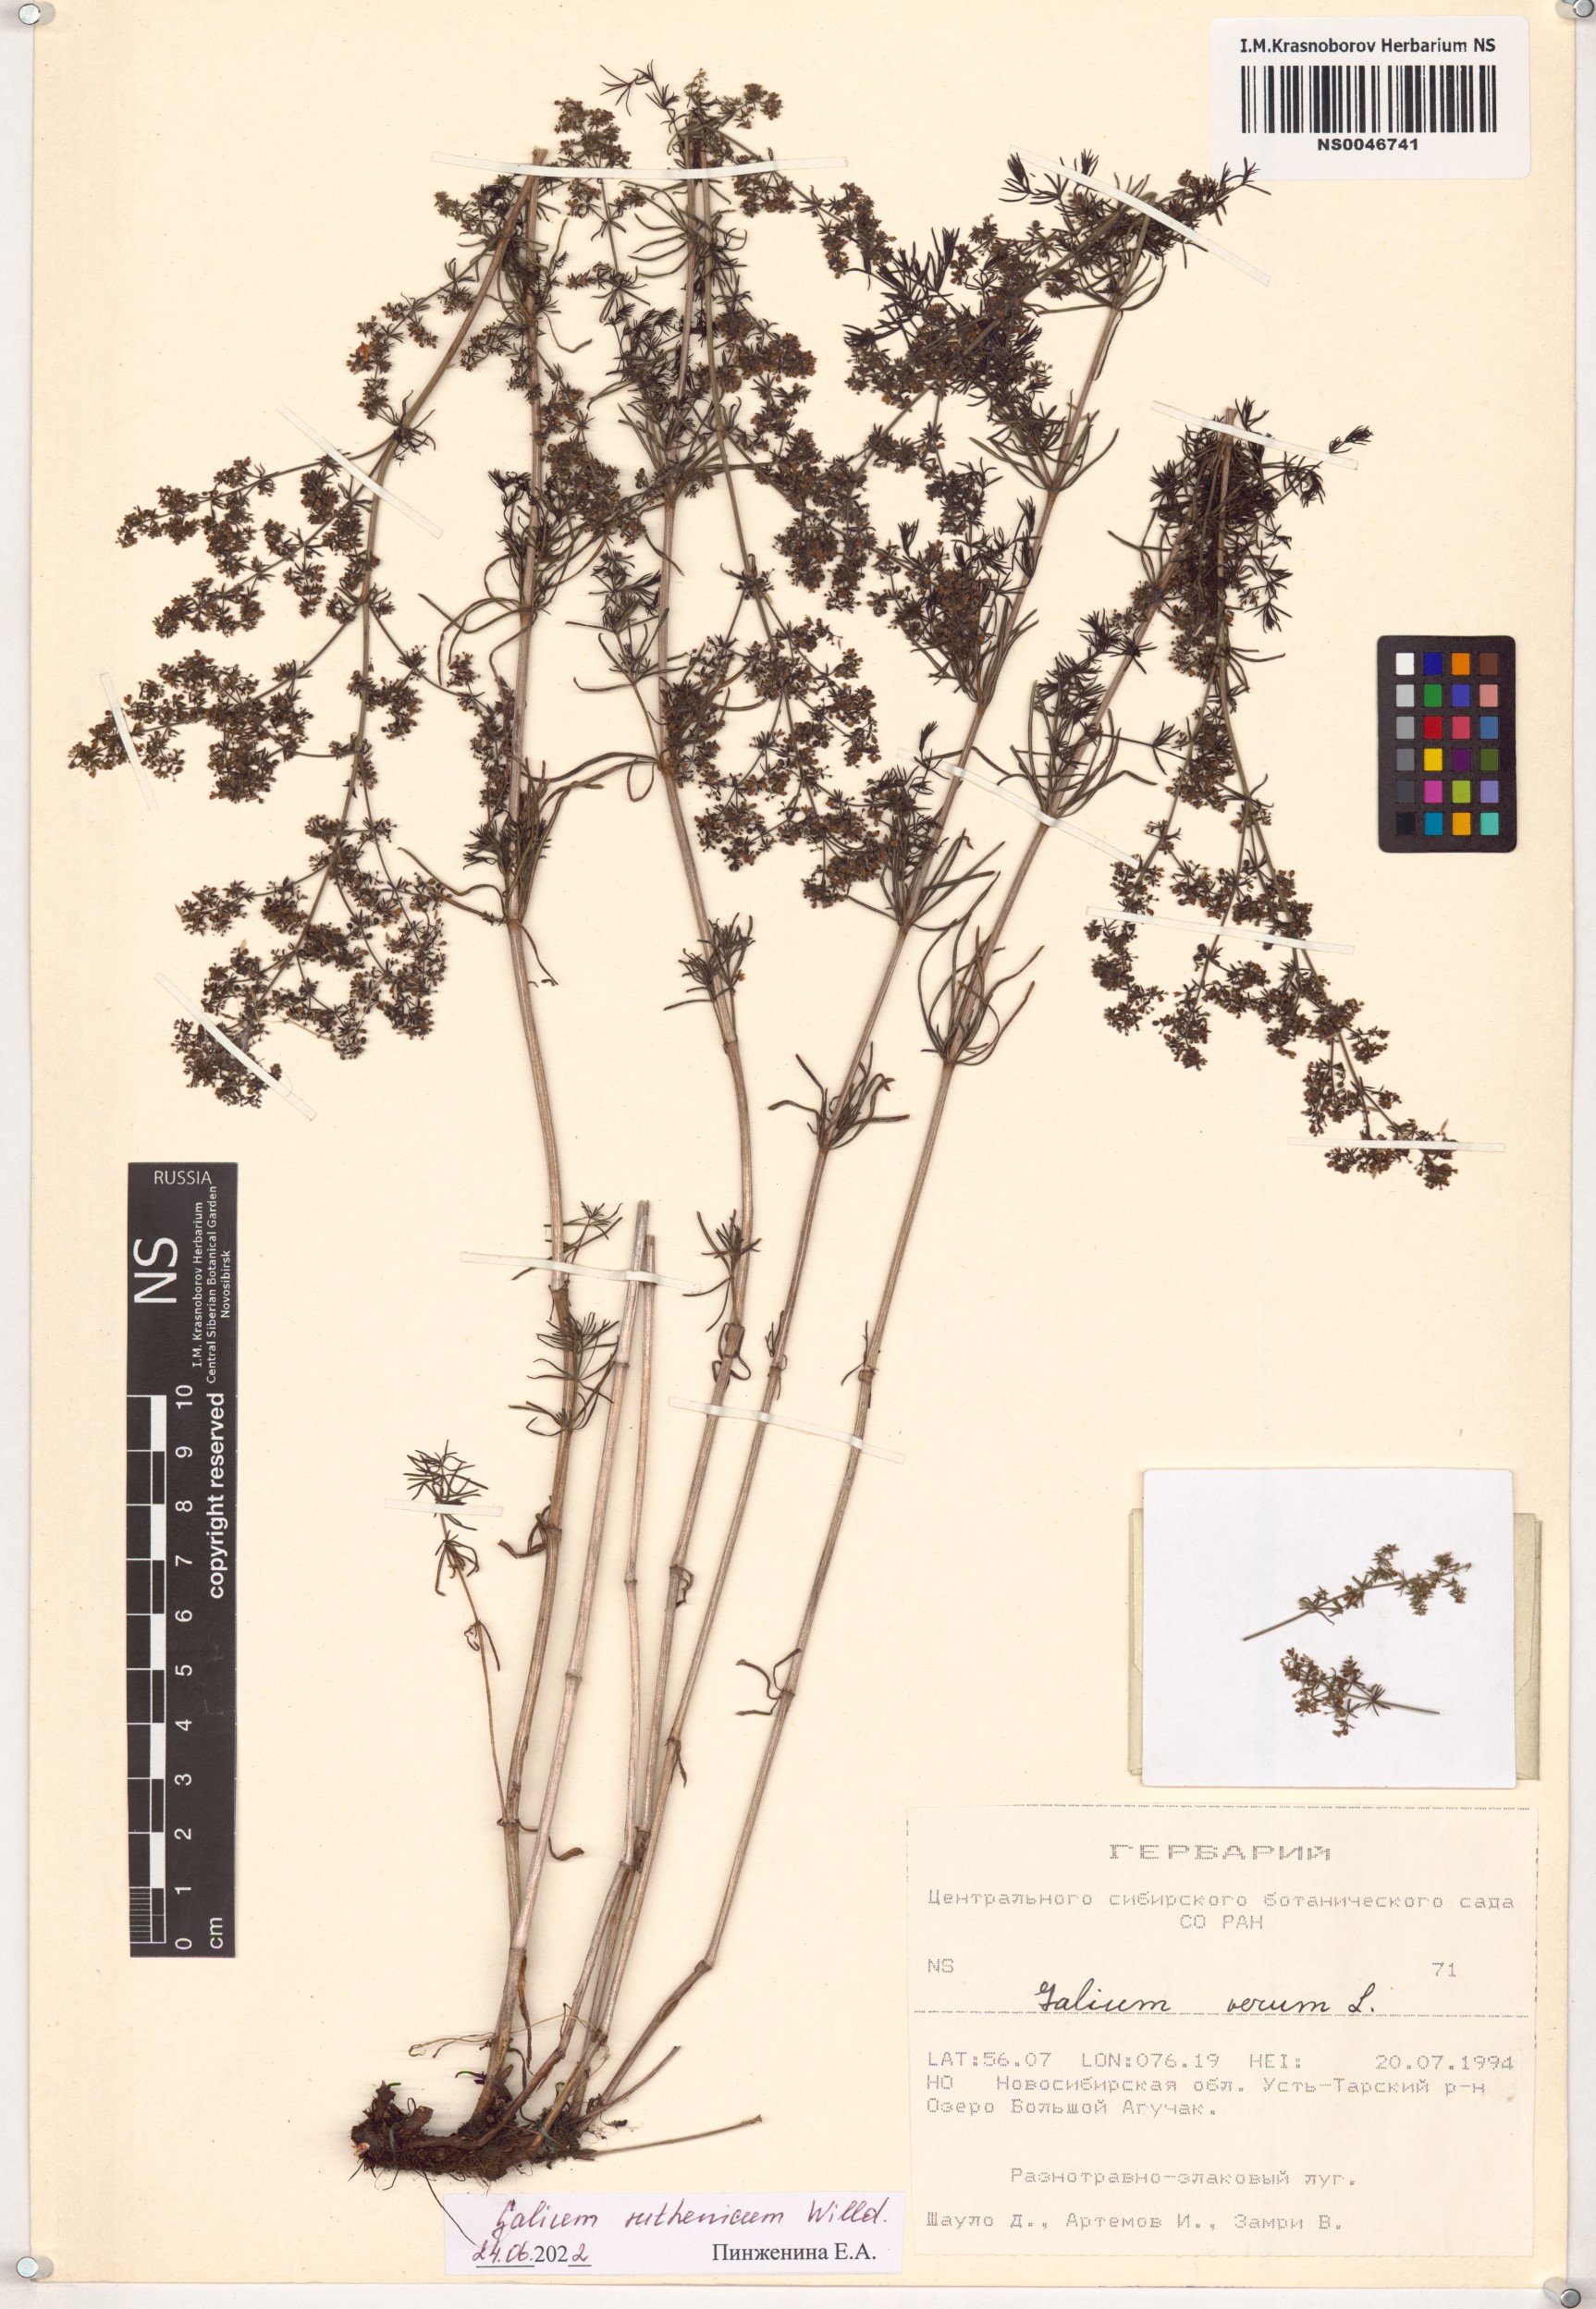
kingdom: Plantae
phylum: Tracheophyta
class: Magnoliopsida
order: Gentianales
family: Rubiaceae
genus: Galium
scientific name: Galium verum
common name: Lady's bedstraw
